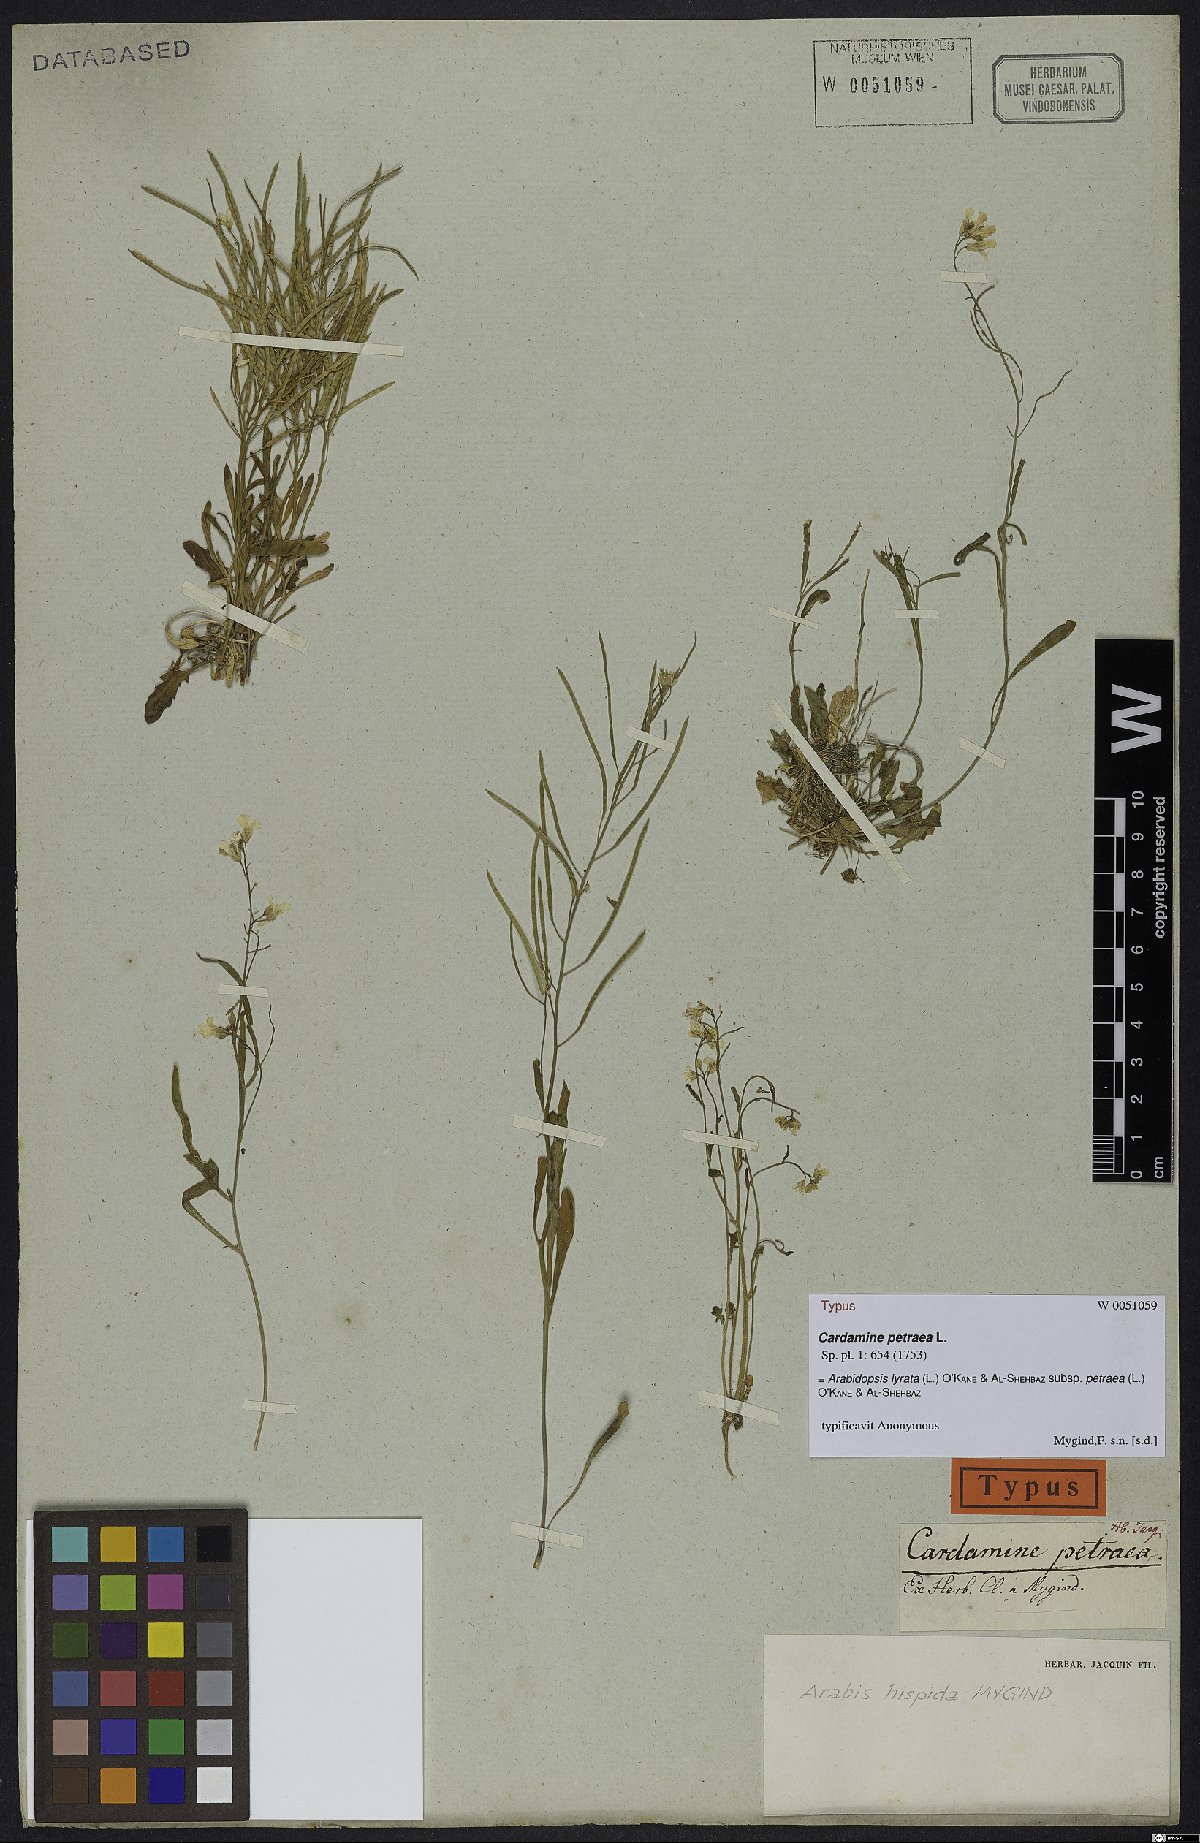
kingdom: Plantae
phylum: Tracheophyta
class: Magnoliopsida
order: Brassicales
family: Brassicaceae
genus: Arabidopsis
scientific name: Arabidopsis lyrata
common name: Lyrate rockcress
